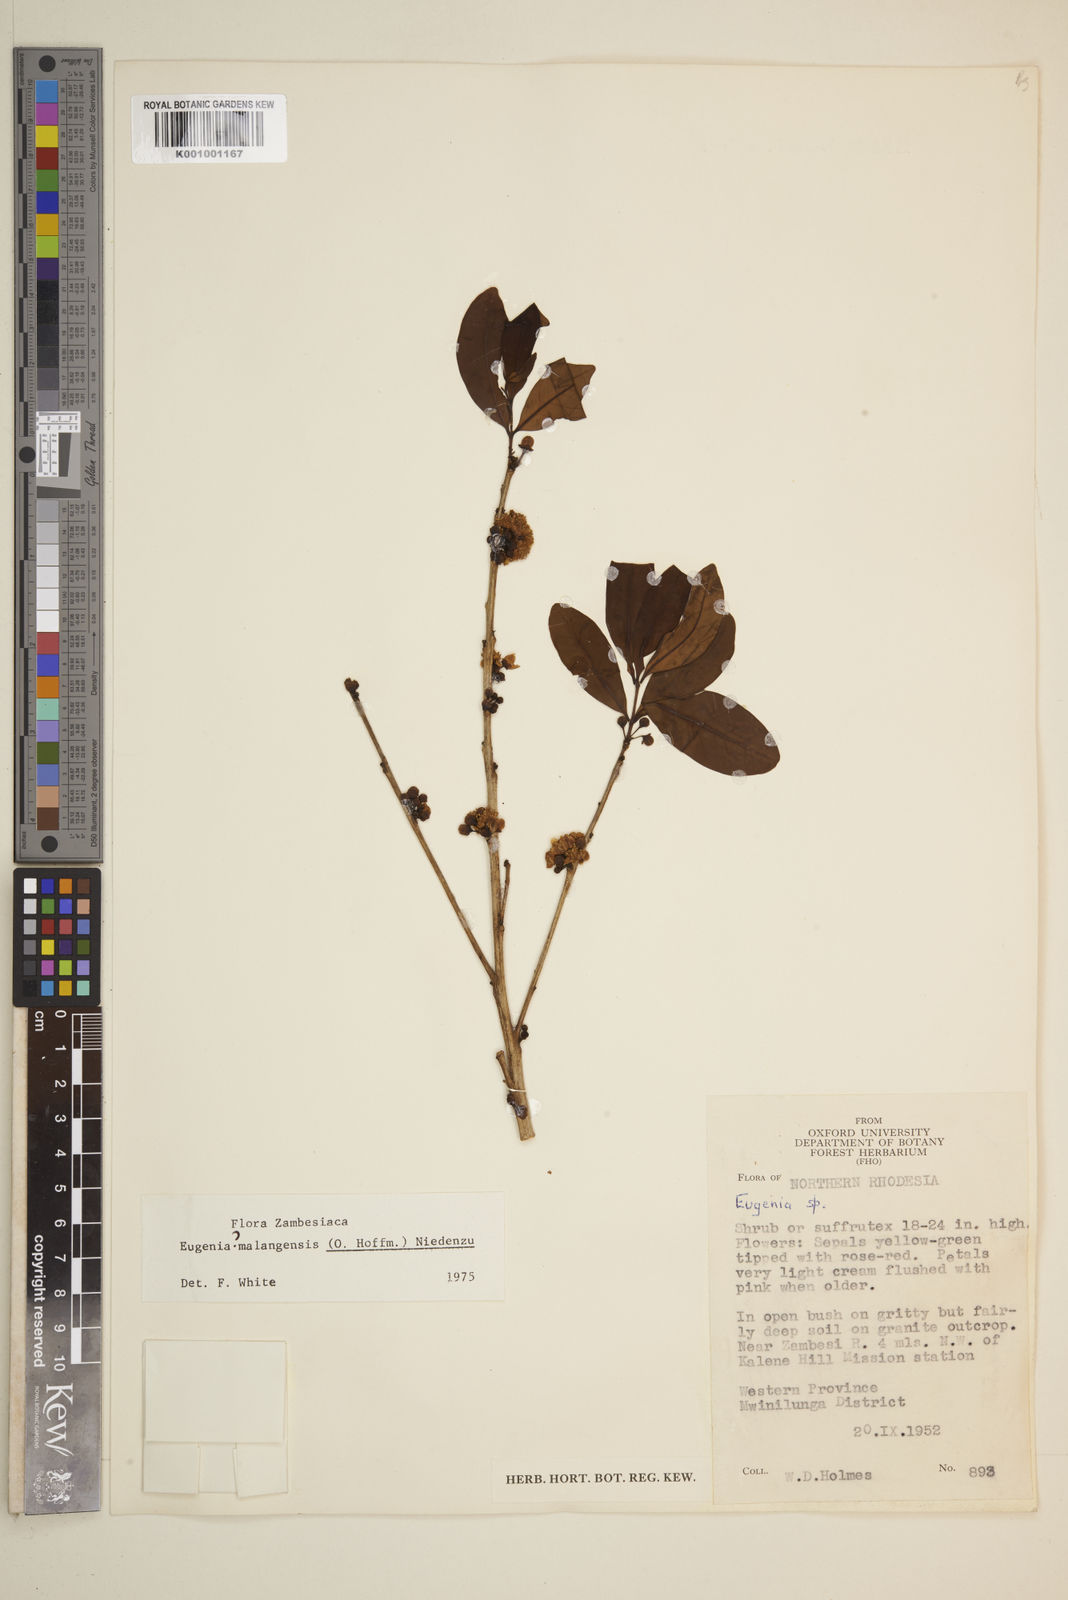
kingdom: Plantae
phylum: Tracheophyta
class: Magnoliopsida
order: Myrtales
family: Myrtaceae
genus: Eugenia
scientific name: Eugenia malangensis
